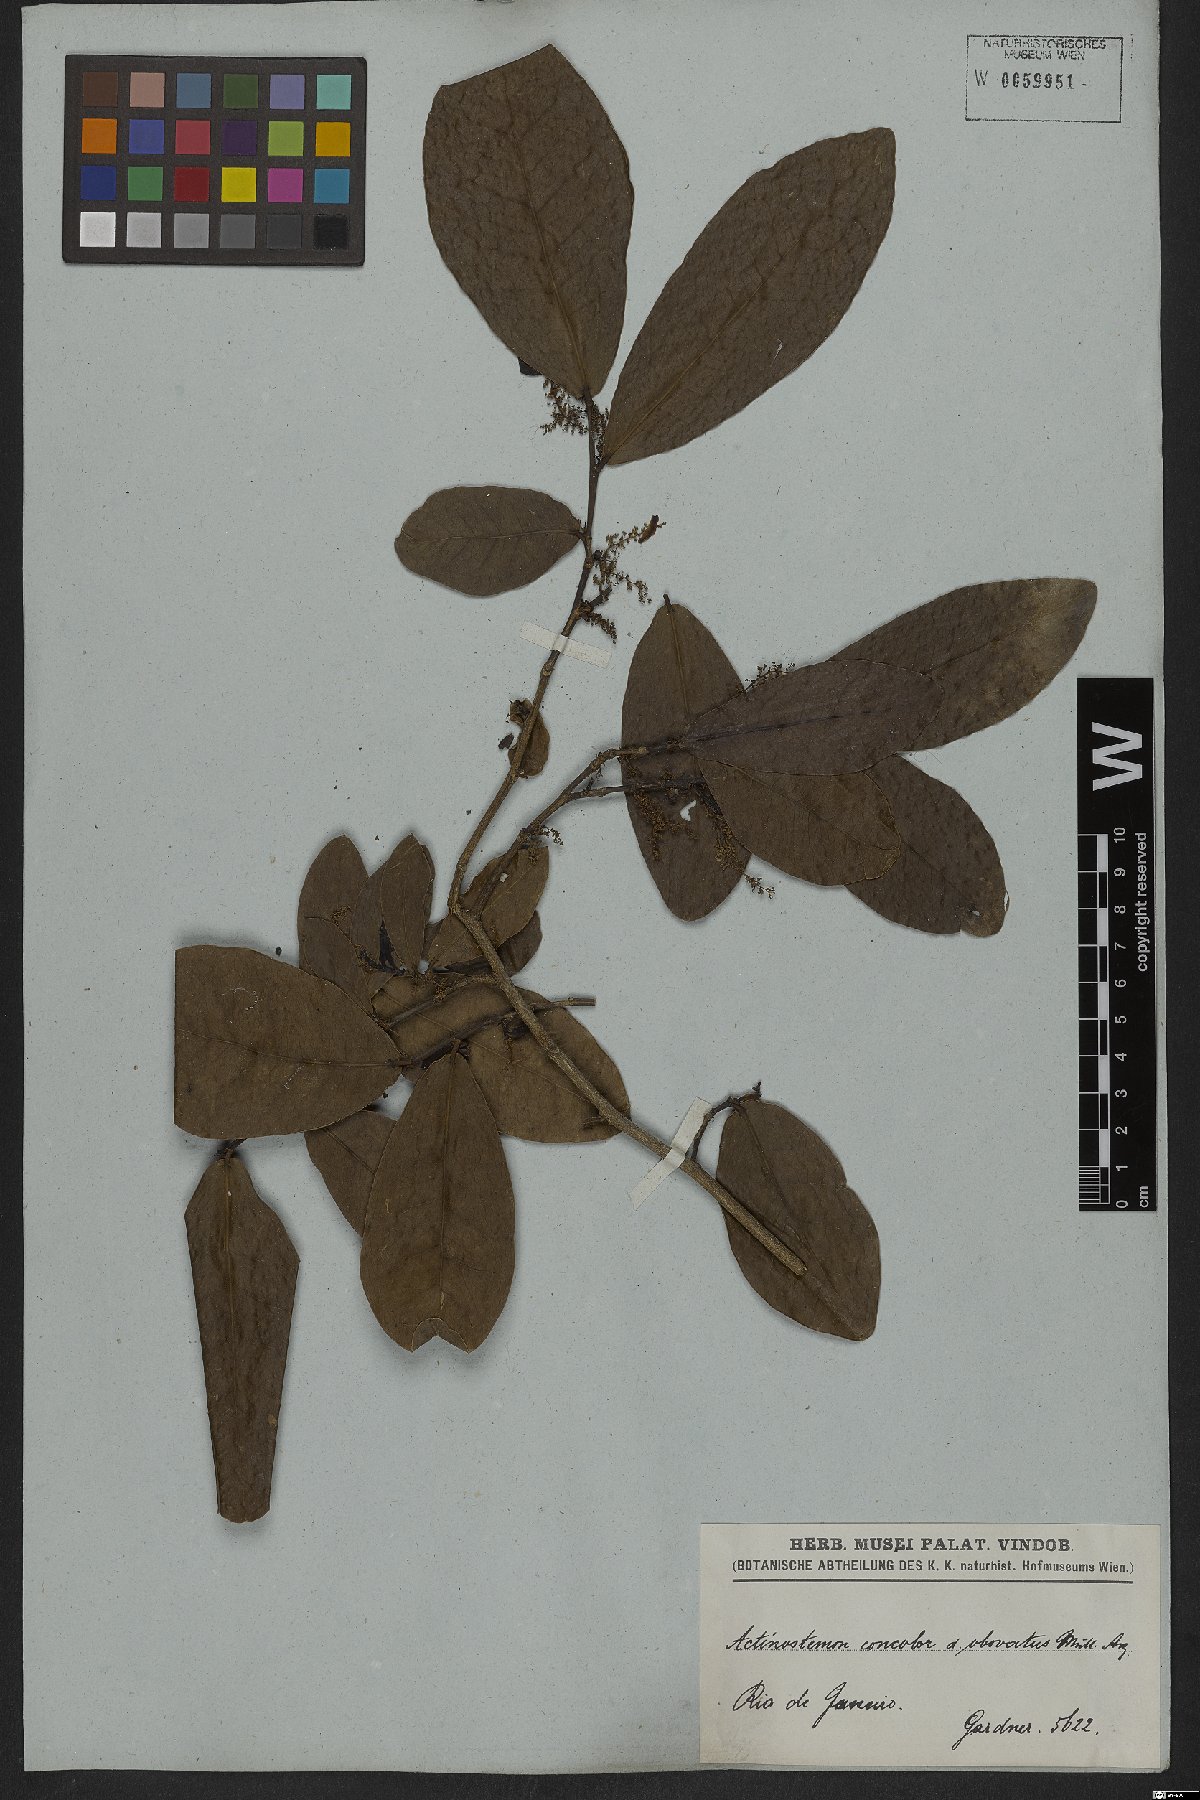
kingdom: Plantae
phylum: Tracheophyta
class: Magnoliopsida
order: Malpighiales
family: Euphorbiaceae
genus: Actinostemon
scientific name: Actinostemon concolor
